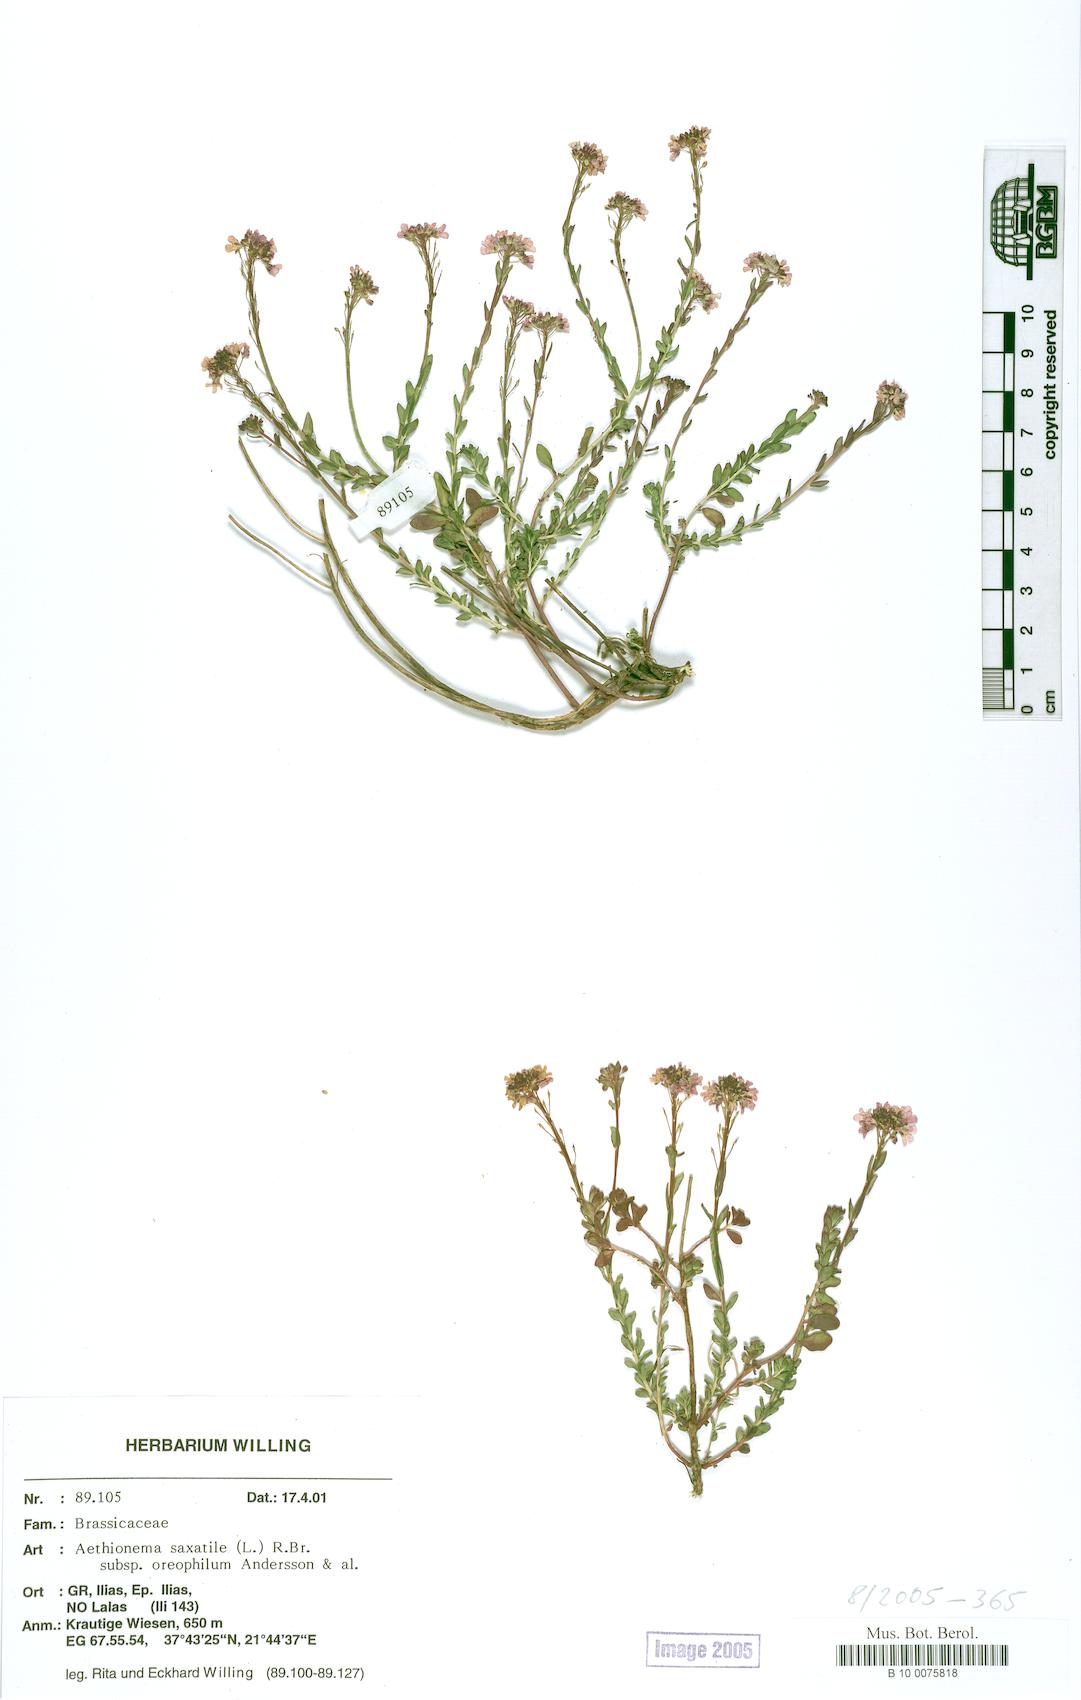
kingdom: Plantae
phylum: Tracheophyta
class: Magnoliopsida
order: Brassicales
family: Brassicaceae
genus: Aethionema
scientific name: Aethionema saxatile
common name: Burnt candytuft
